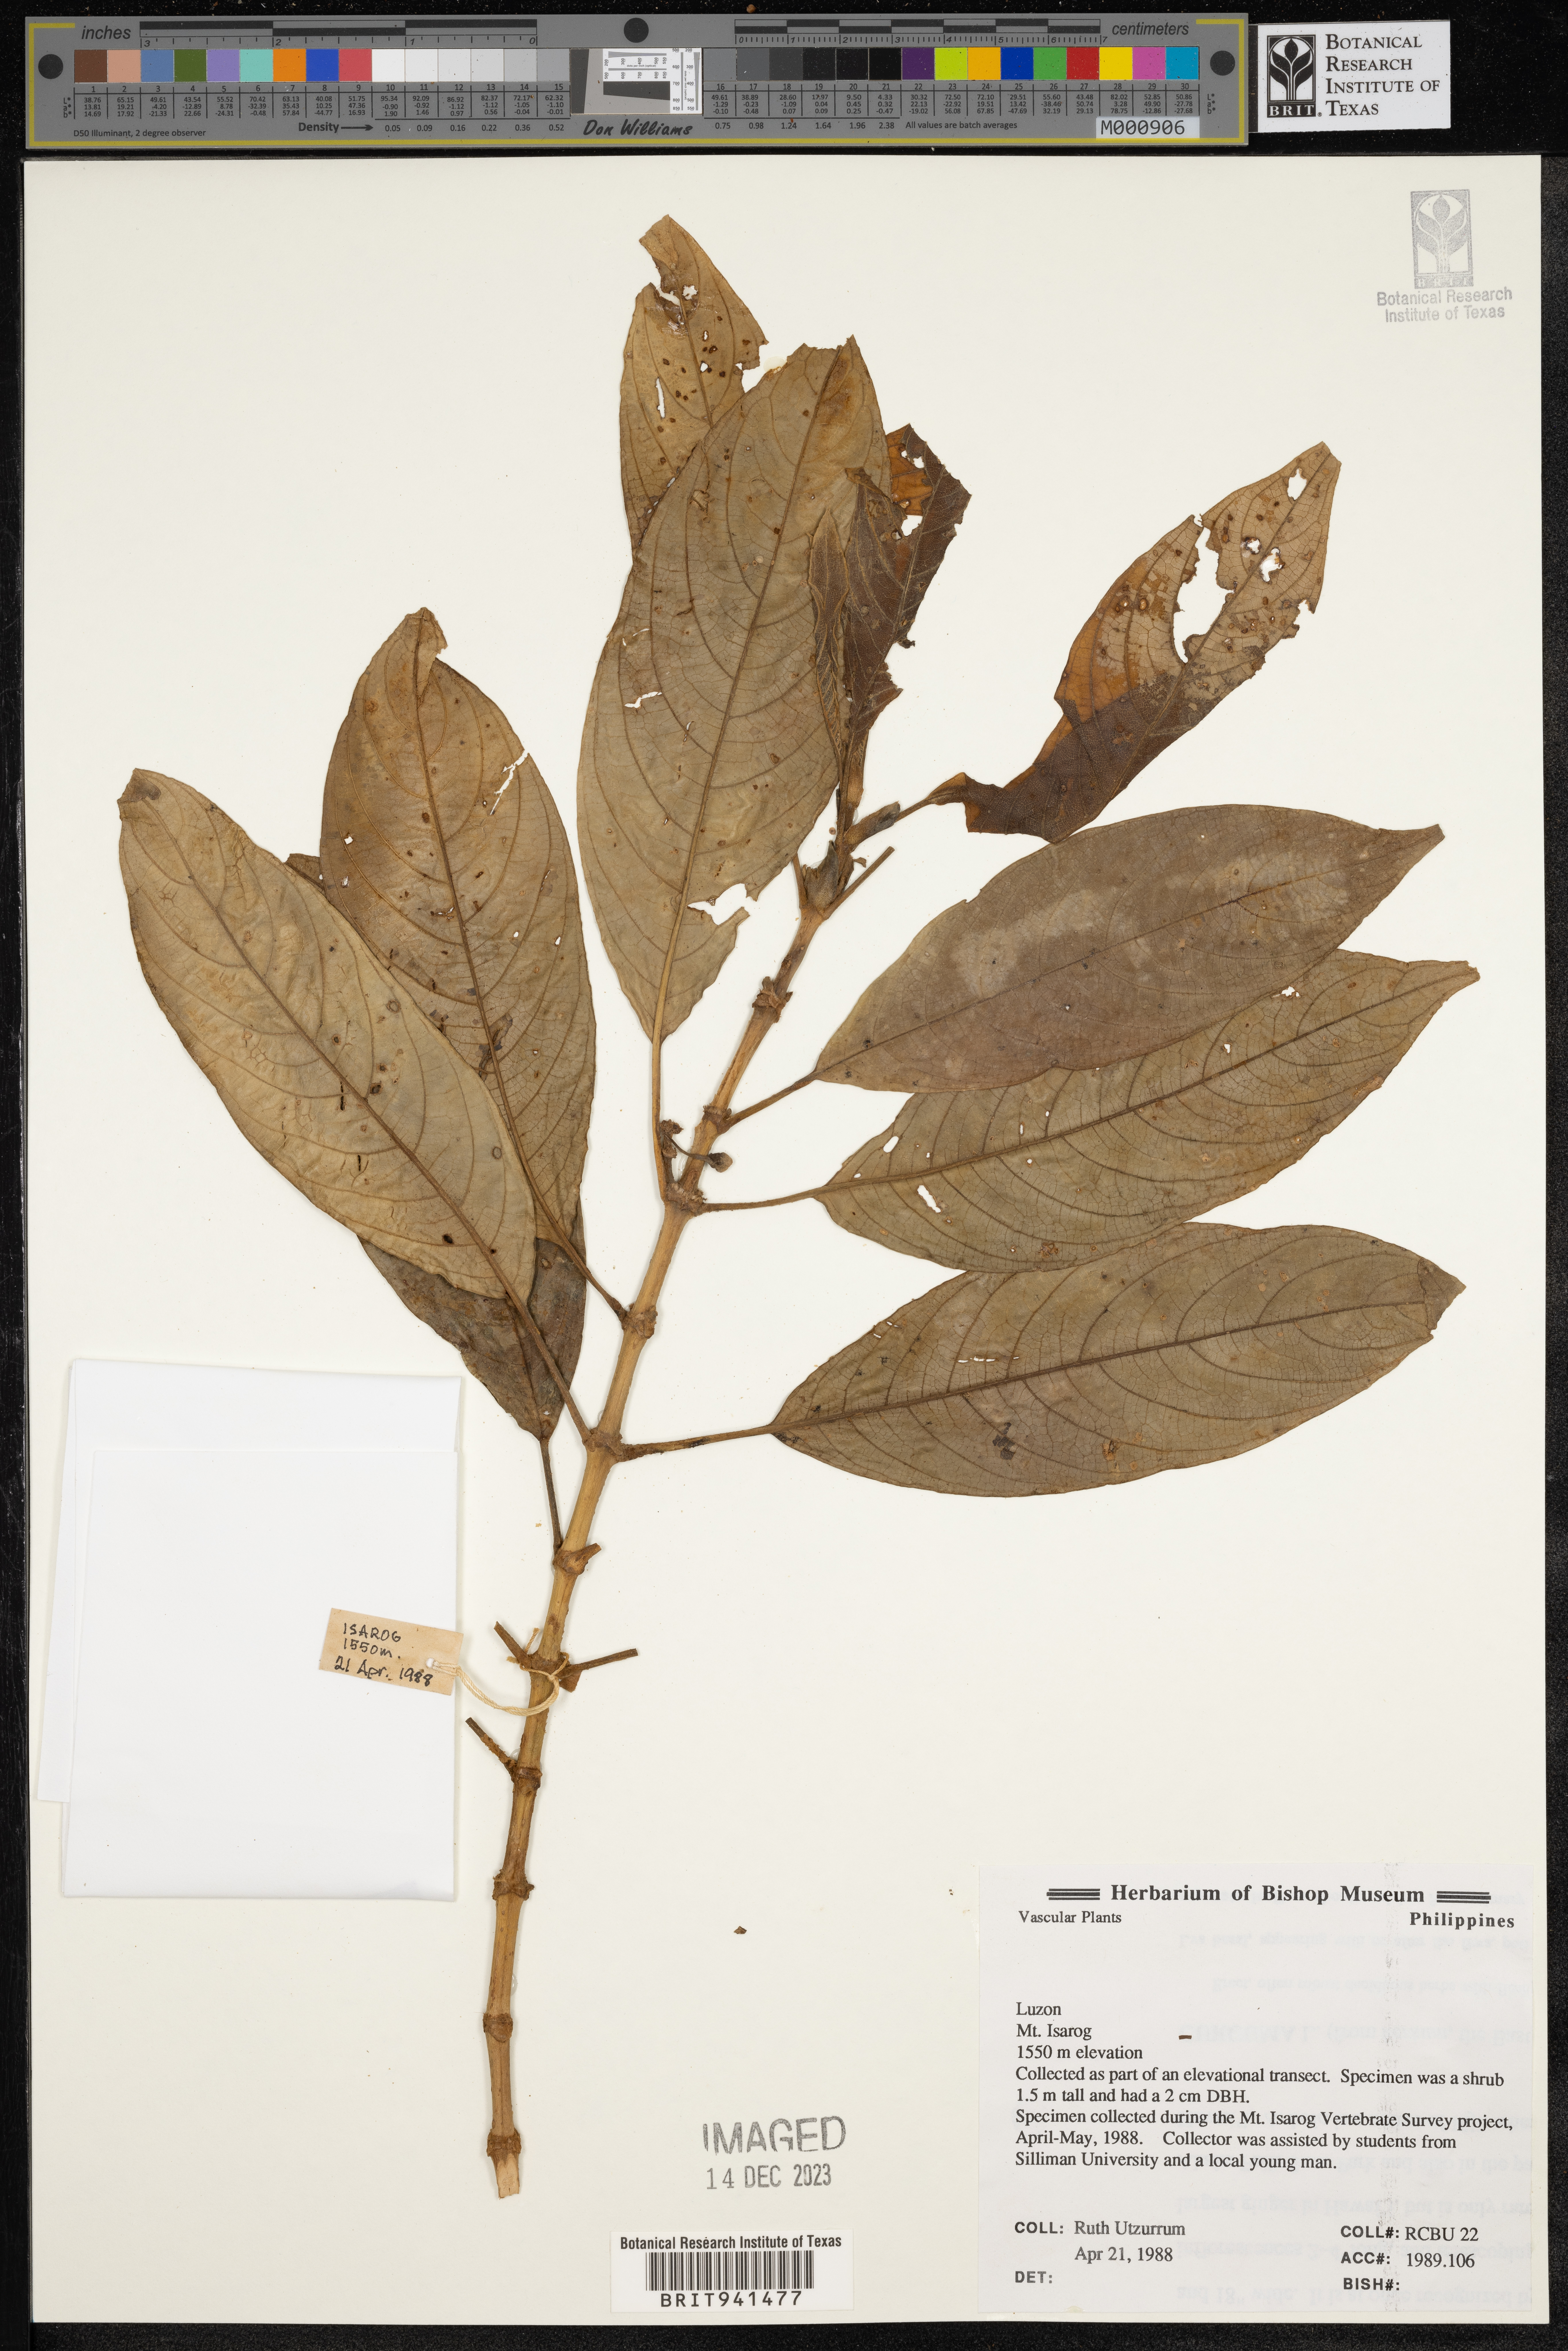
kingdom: Plantae
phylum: Tracheophyta
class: Magnoliopsida
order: Gentianales
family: Rubiaceae
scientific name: Rubiaceae
